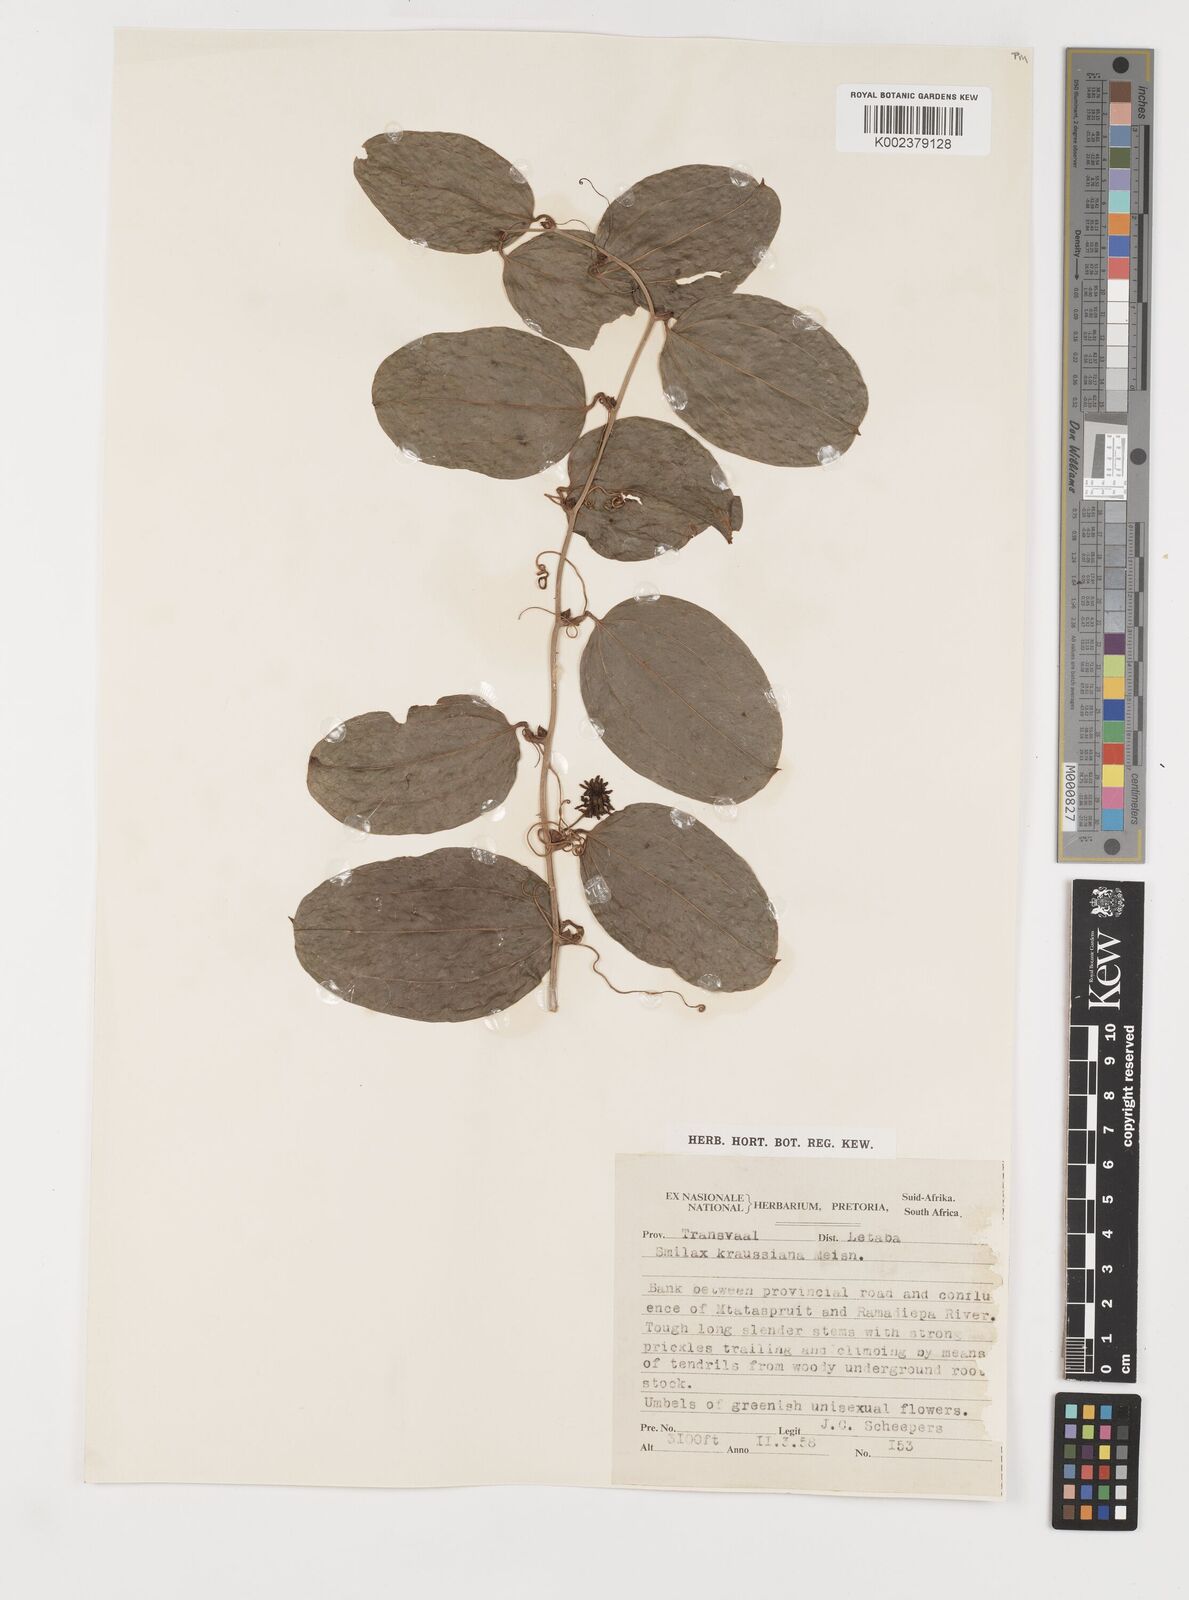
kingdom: Plantae
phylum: Tracheophyta
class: Liliopsida
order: Liliales
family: Smilacaceae
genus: Smilax
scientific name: Smilax anceps
